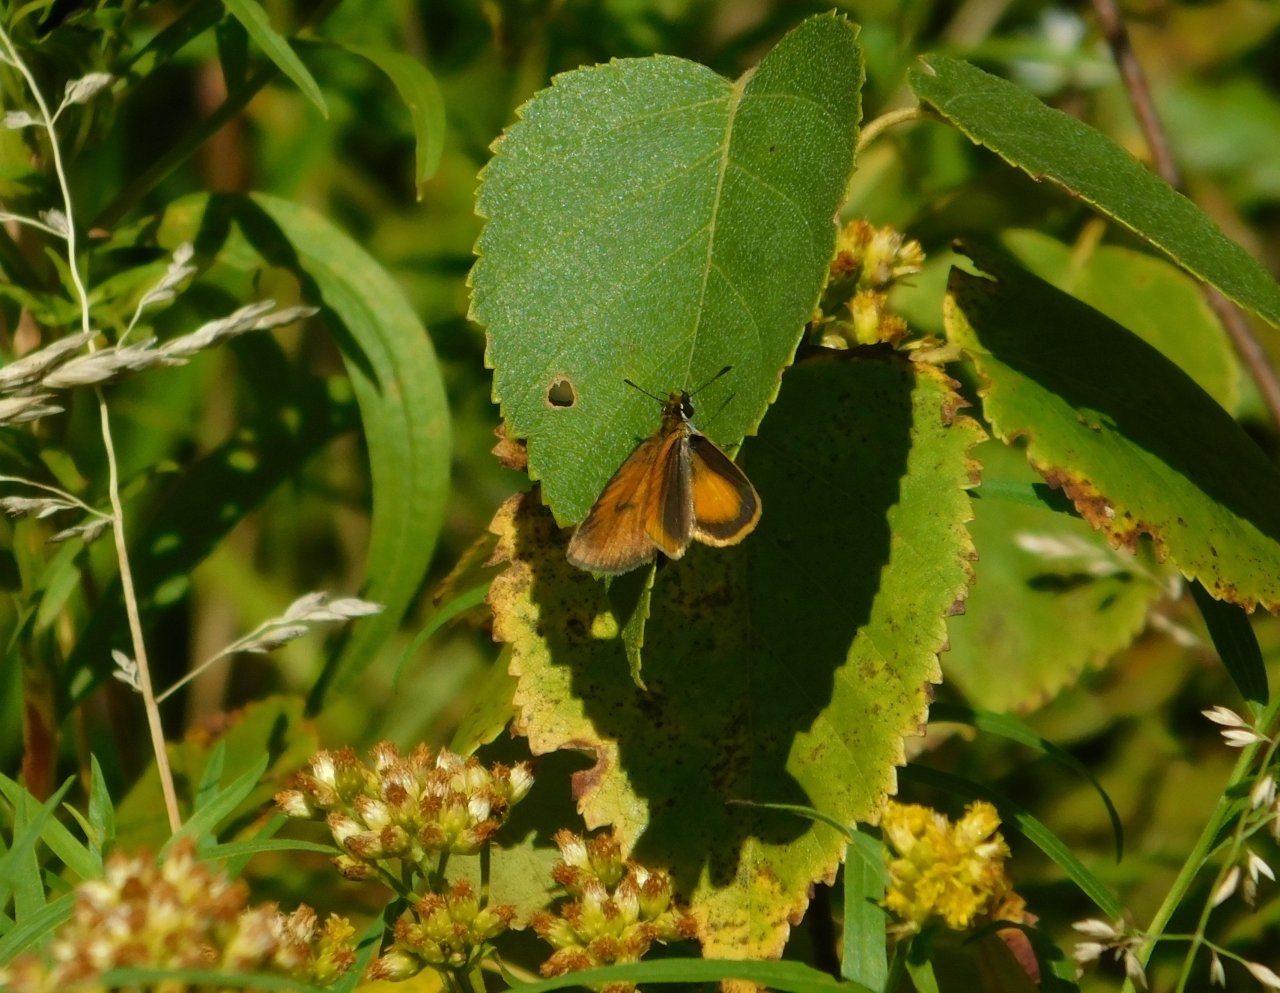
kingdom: Animalia
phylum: Arthropoda
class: Insecta
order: Lepidoptera
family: Hesperiidae
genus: Ancyloxypha
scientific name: Ancyloxypha numitor
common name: Least Skipper
